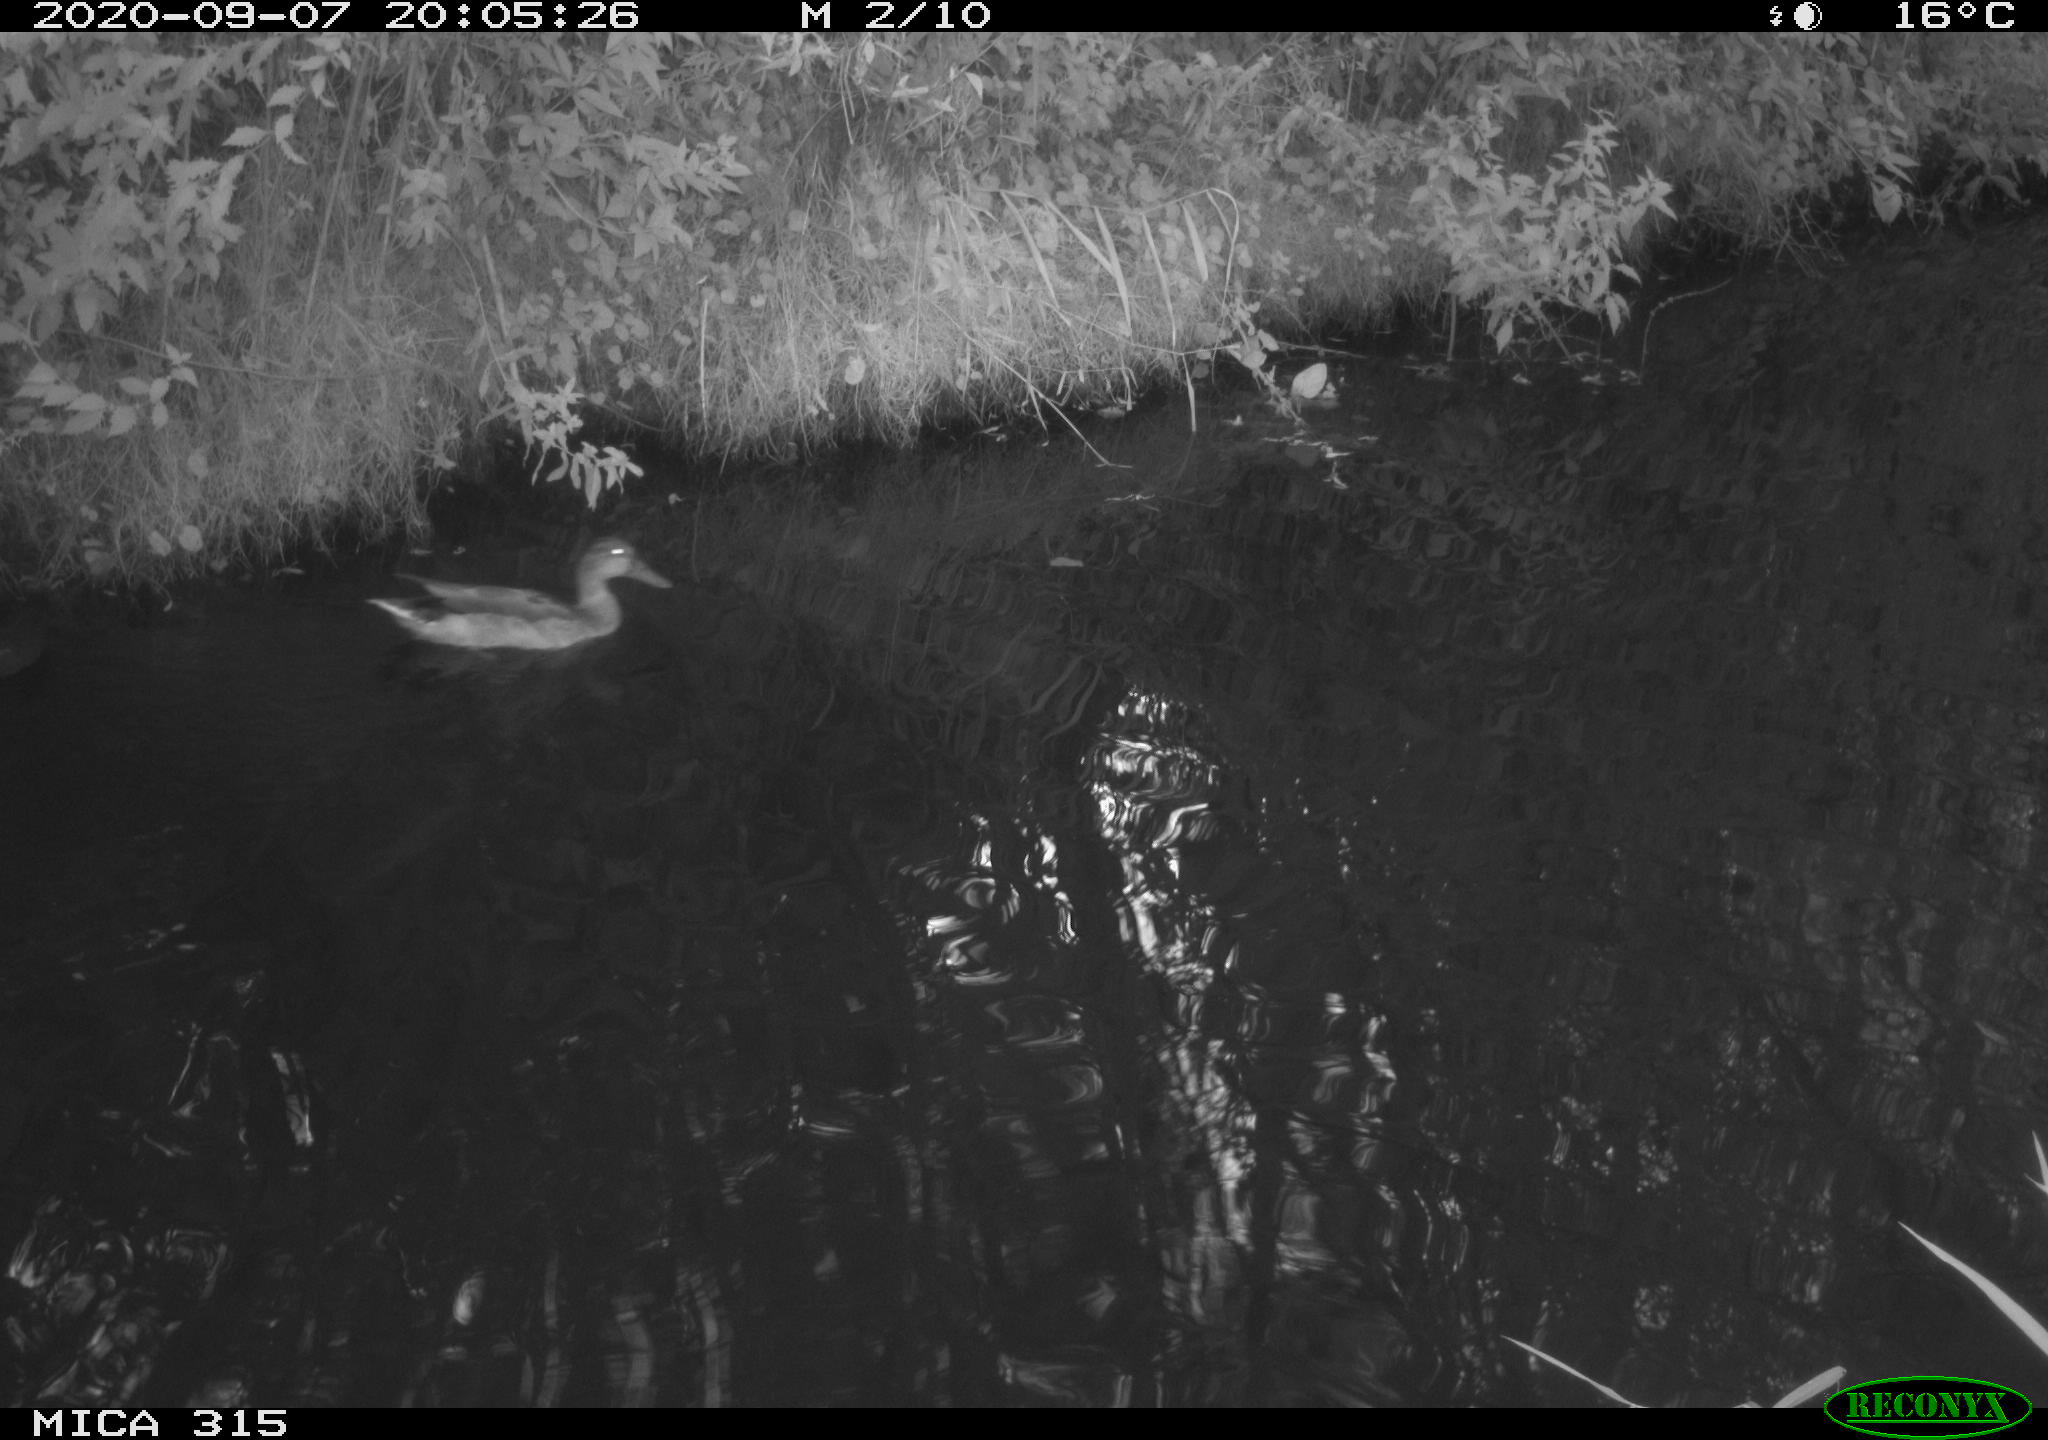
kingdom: Animalia
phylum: Chordata
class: Aves
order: Gruiformes
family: Rallidae
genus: Gallinula
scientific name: Gallinula chloropus
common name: Common moorhen
